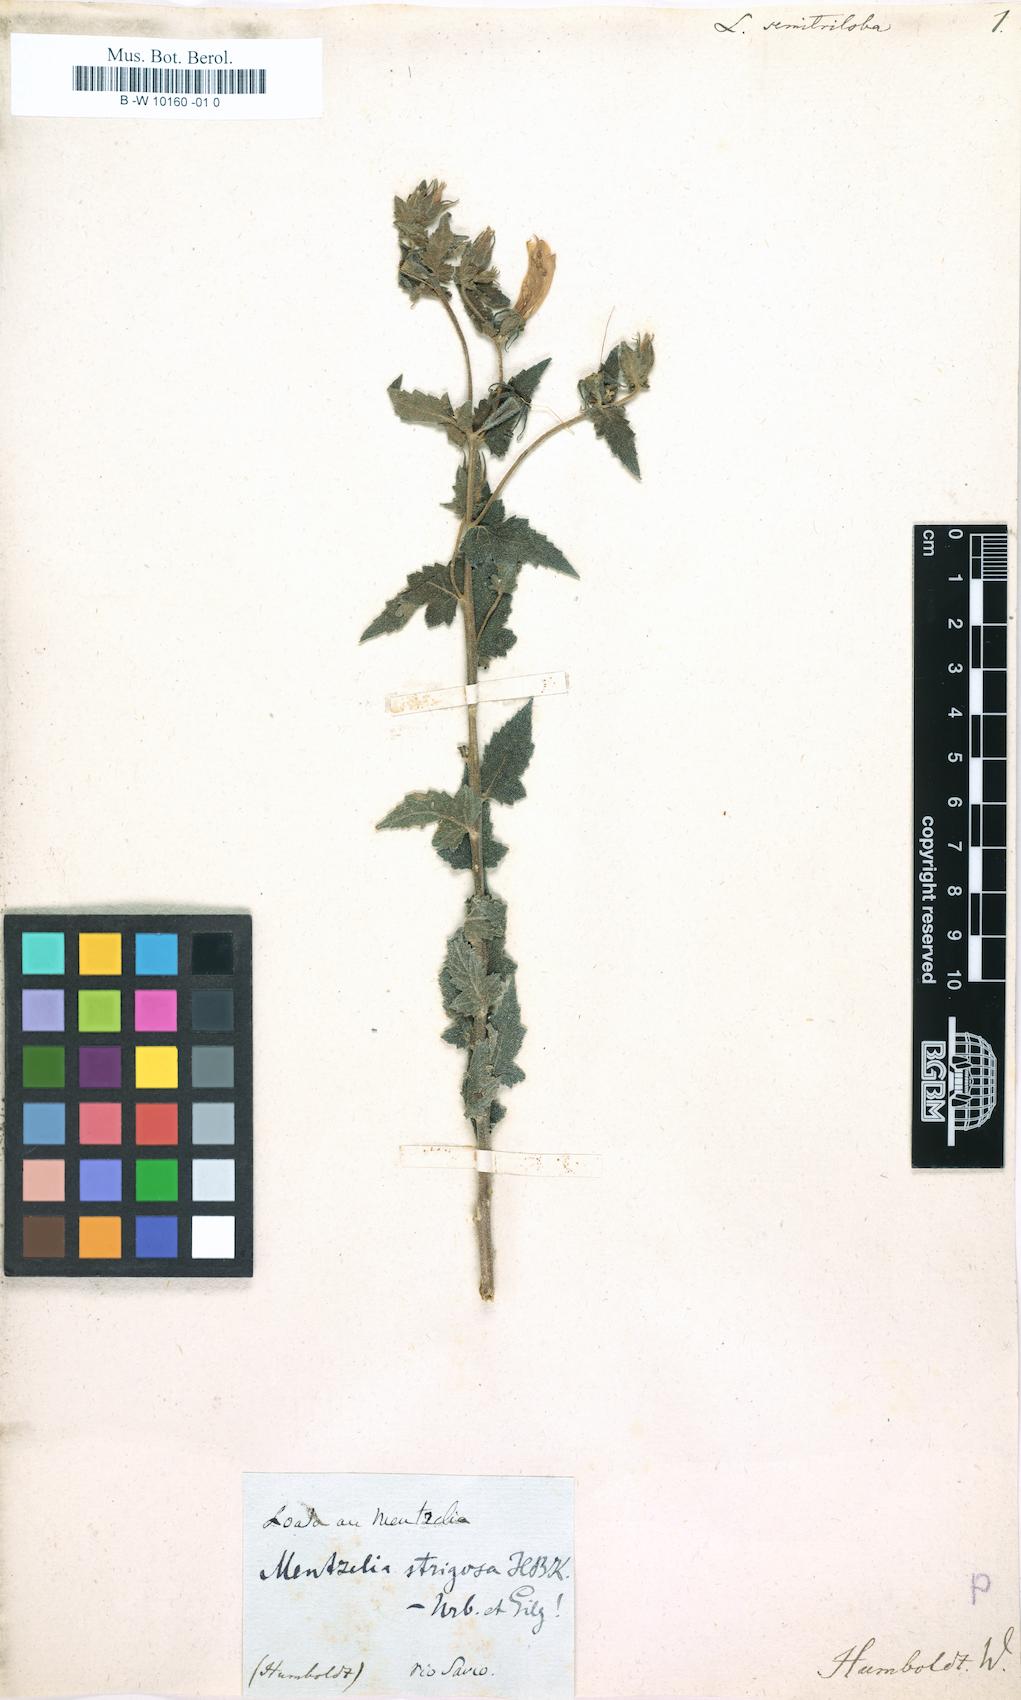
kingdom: Plantae
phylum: Tracheophyta
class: Magnoliopsida
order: Cornales
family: Loasaceae
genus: Loasa
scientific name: Loasa
